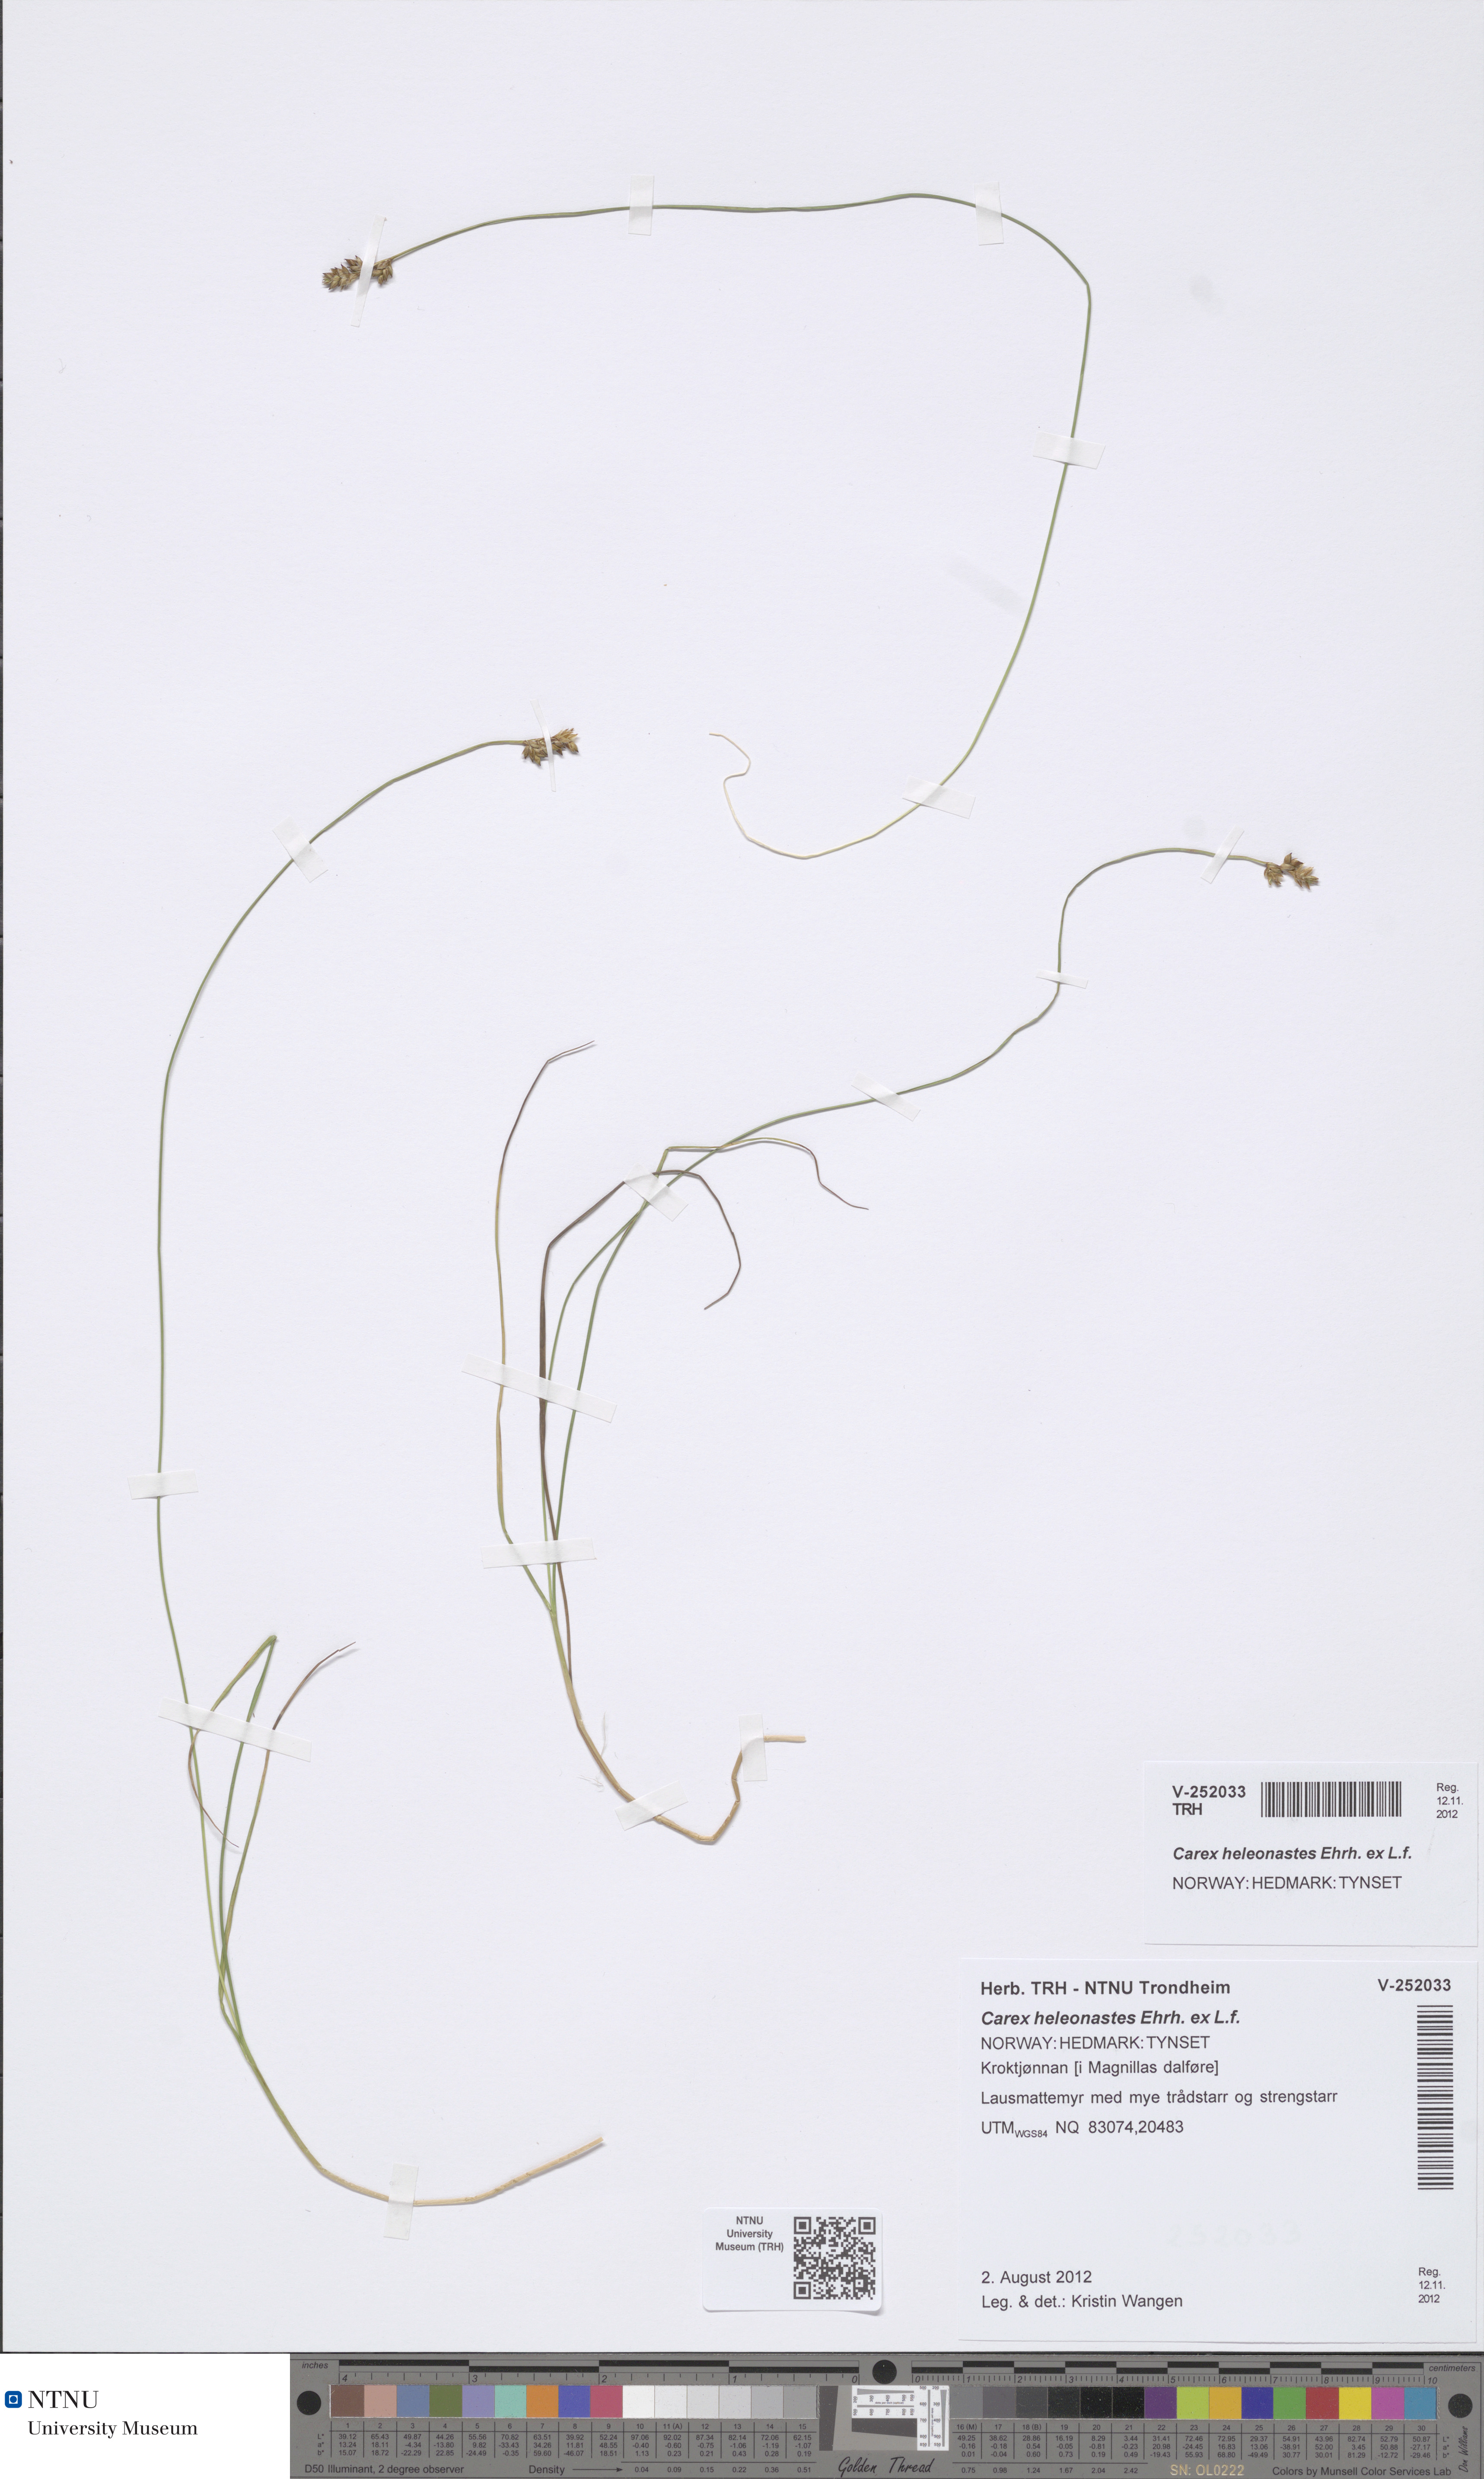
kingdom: Plantae
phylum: Tracheophyta
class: Liliopsida
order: Poales
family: Cyperaceae
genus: Carex
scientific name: Carex heleonastes
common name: Hudson bay sedge
